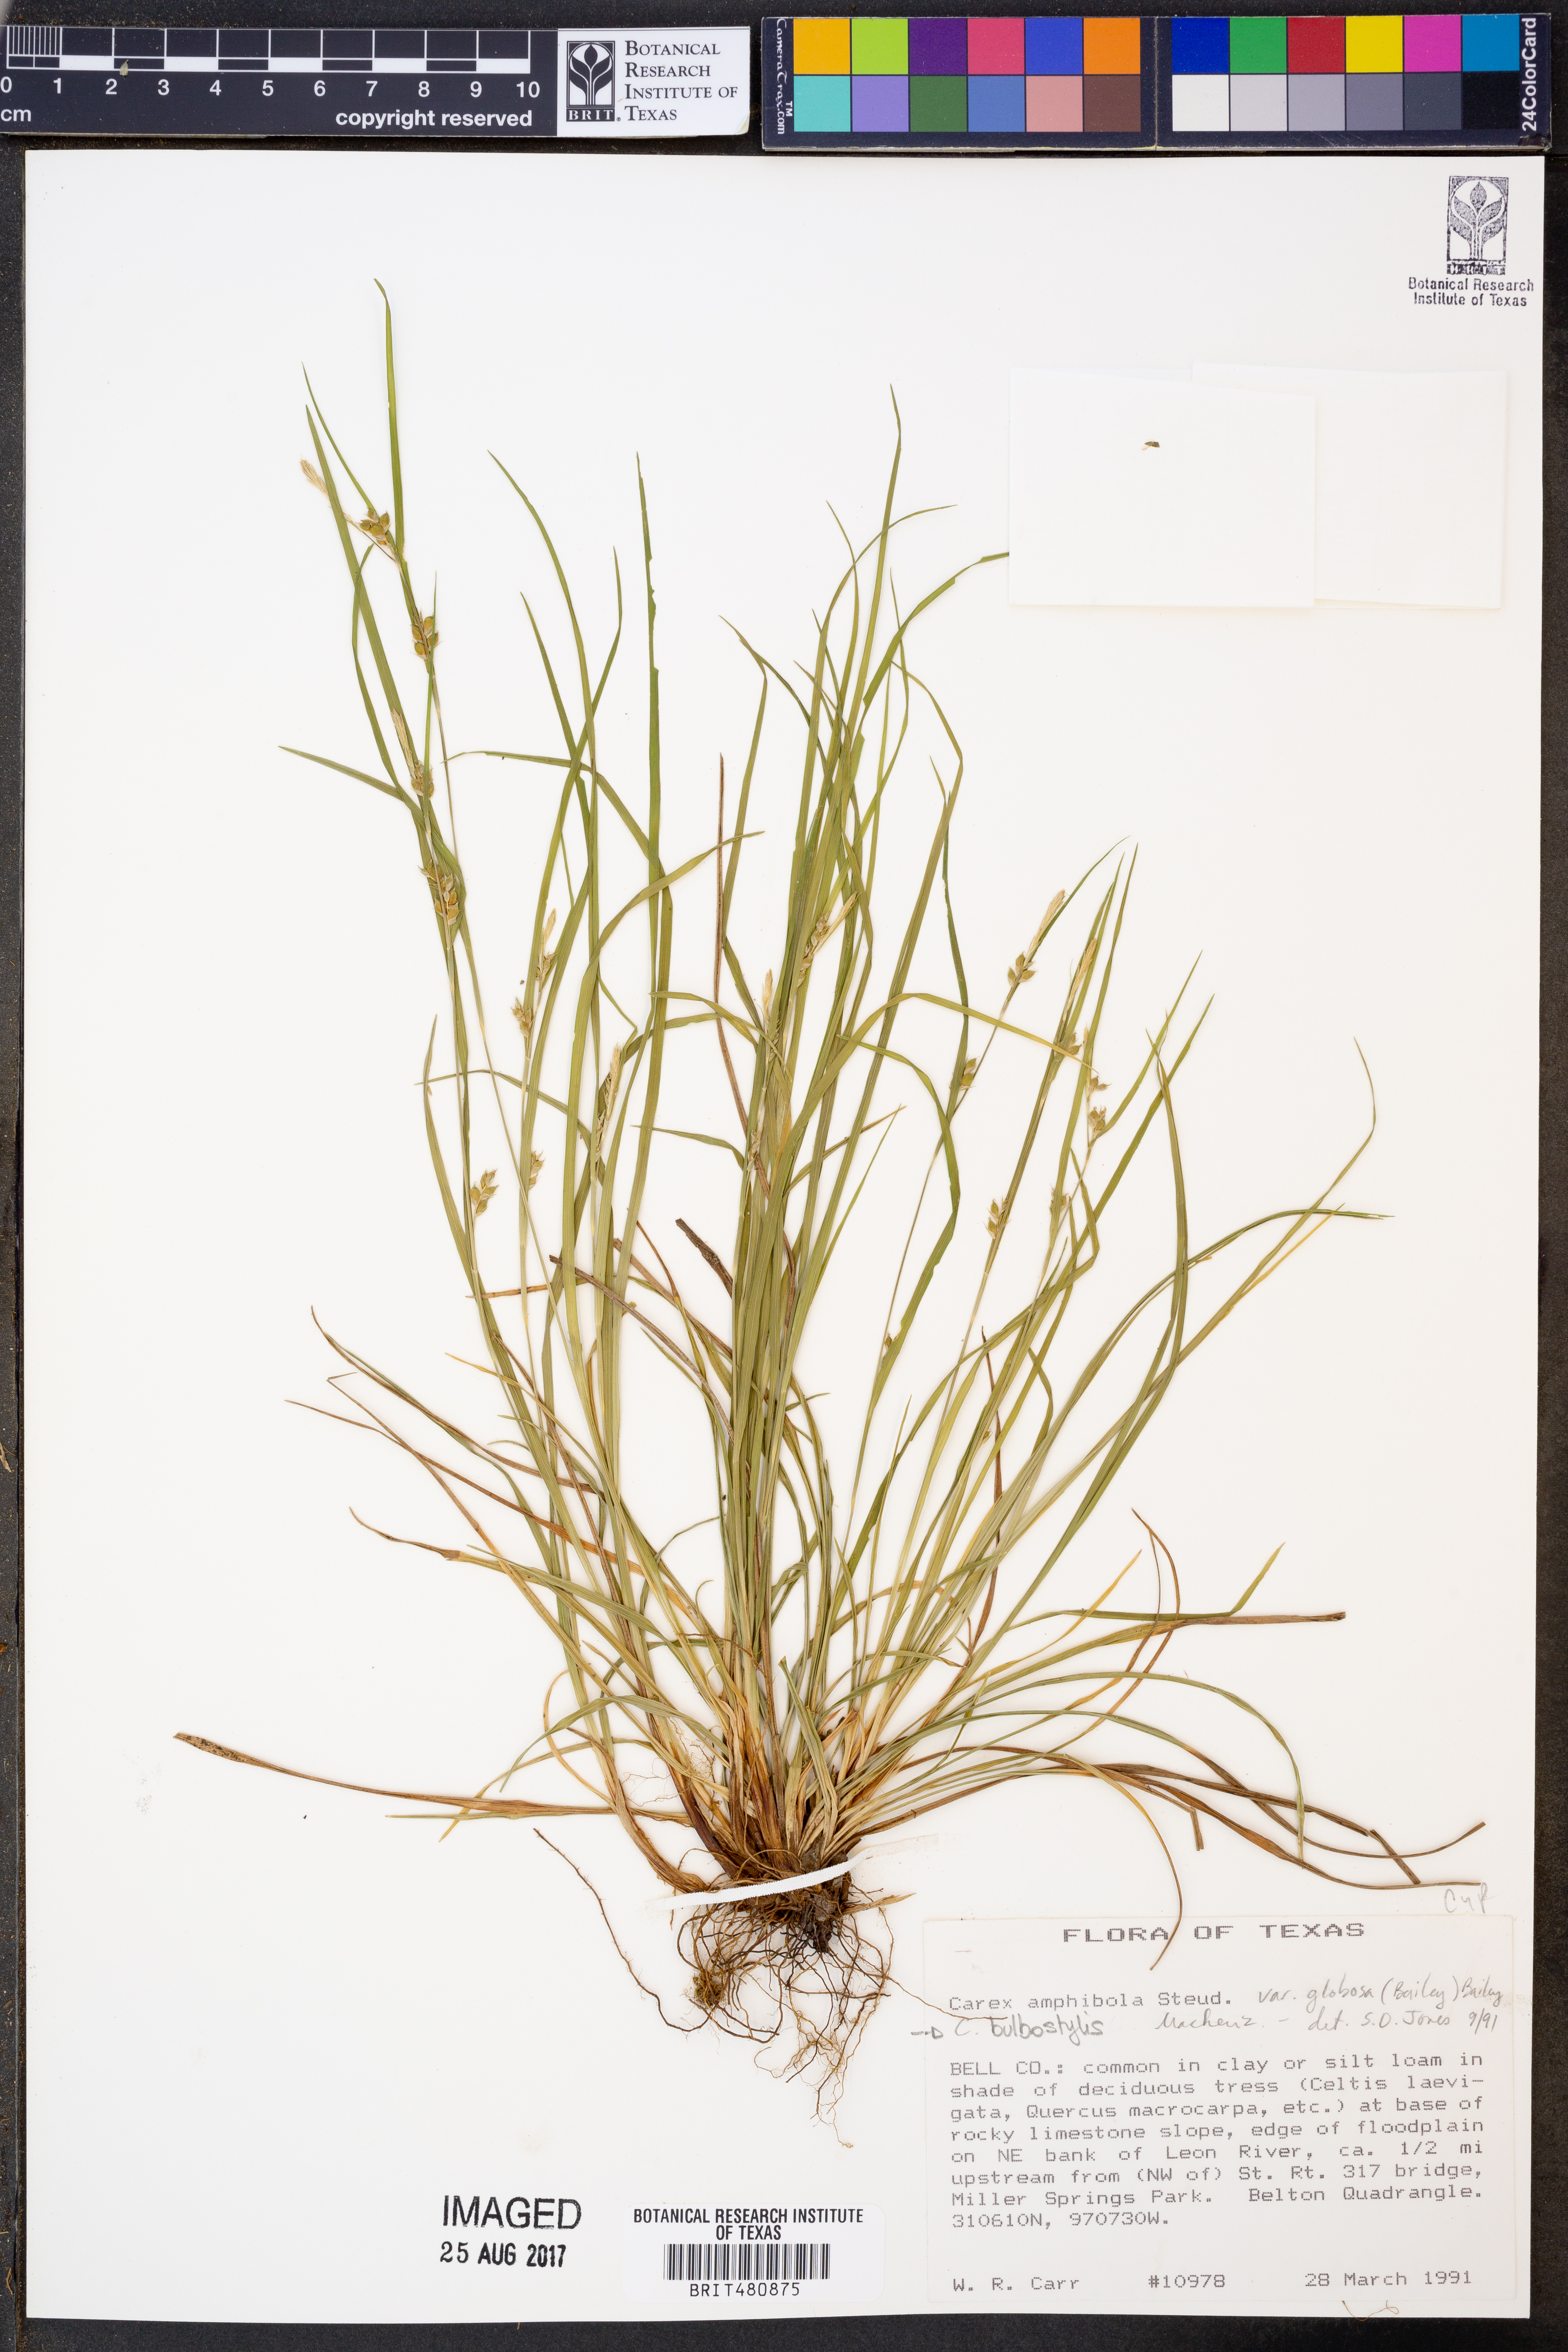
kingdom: Plantae
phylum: Tracheophyta
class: Liliopsida
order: Poales
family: Cyperaceae
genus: Carex
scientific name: Carex bulbostylis
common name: Eastern narrowleaf sedge
